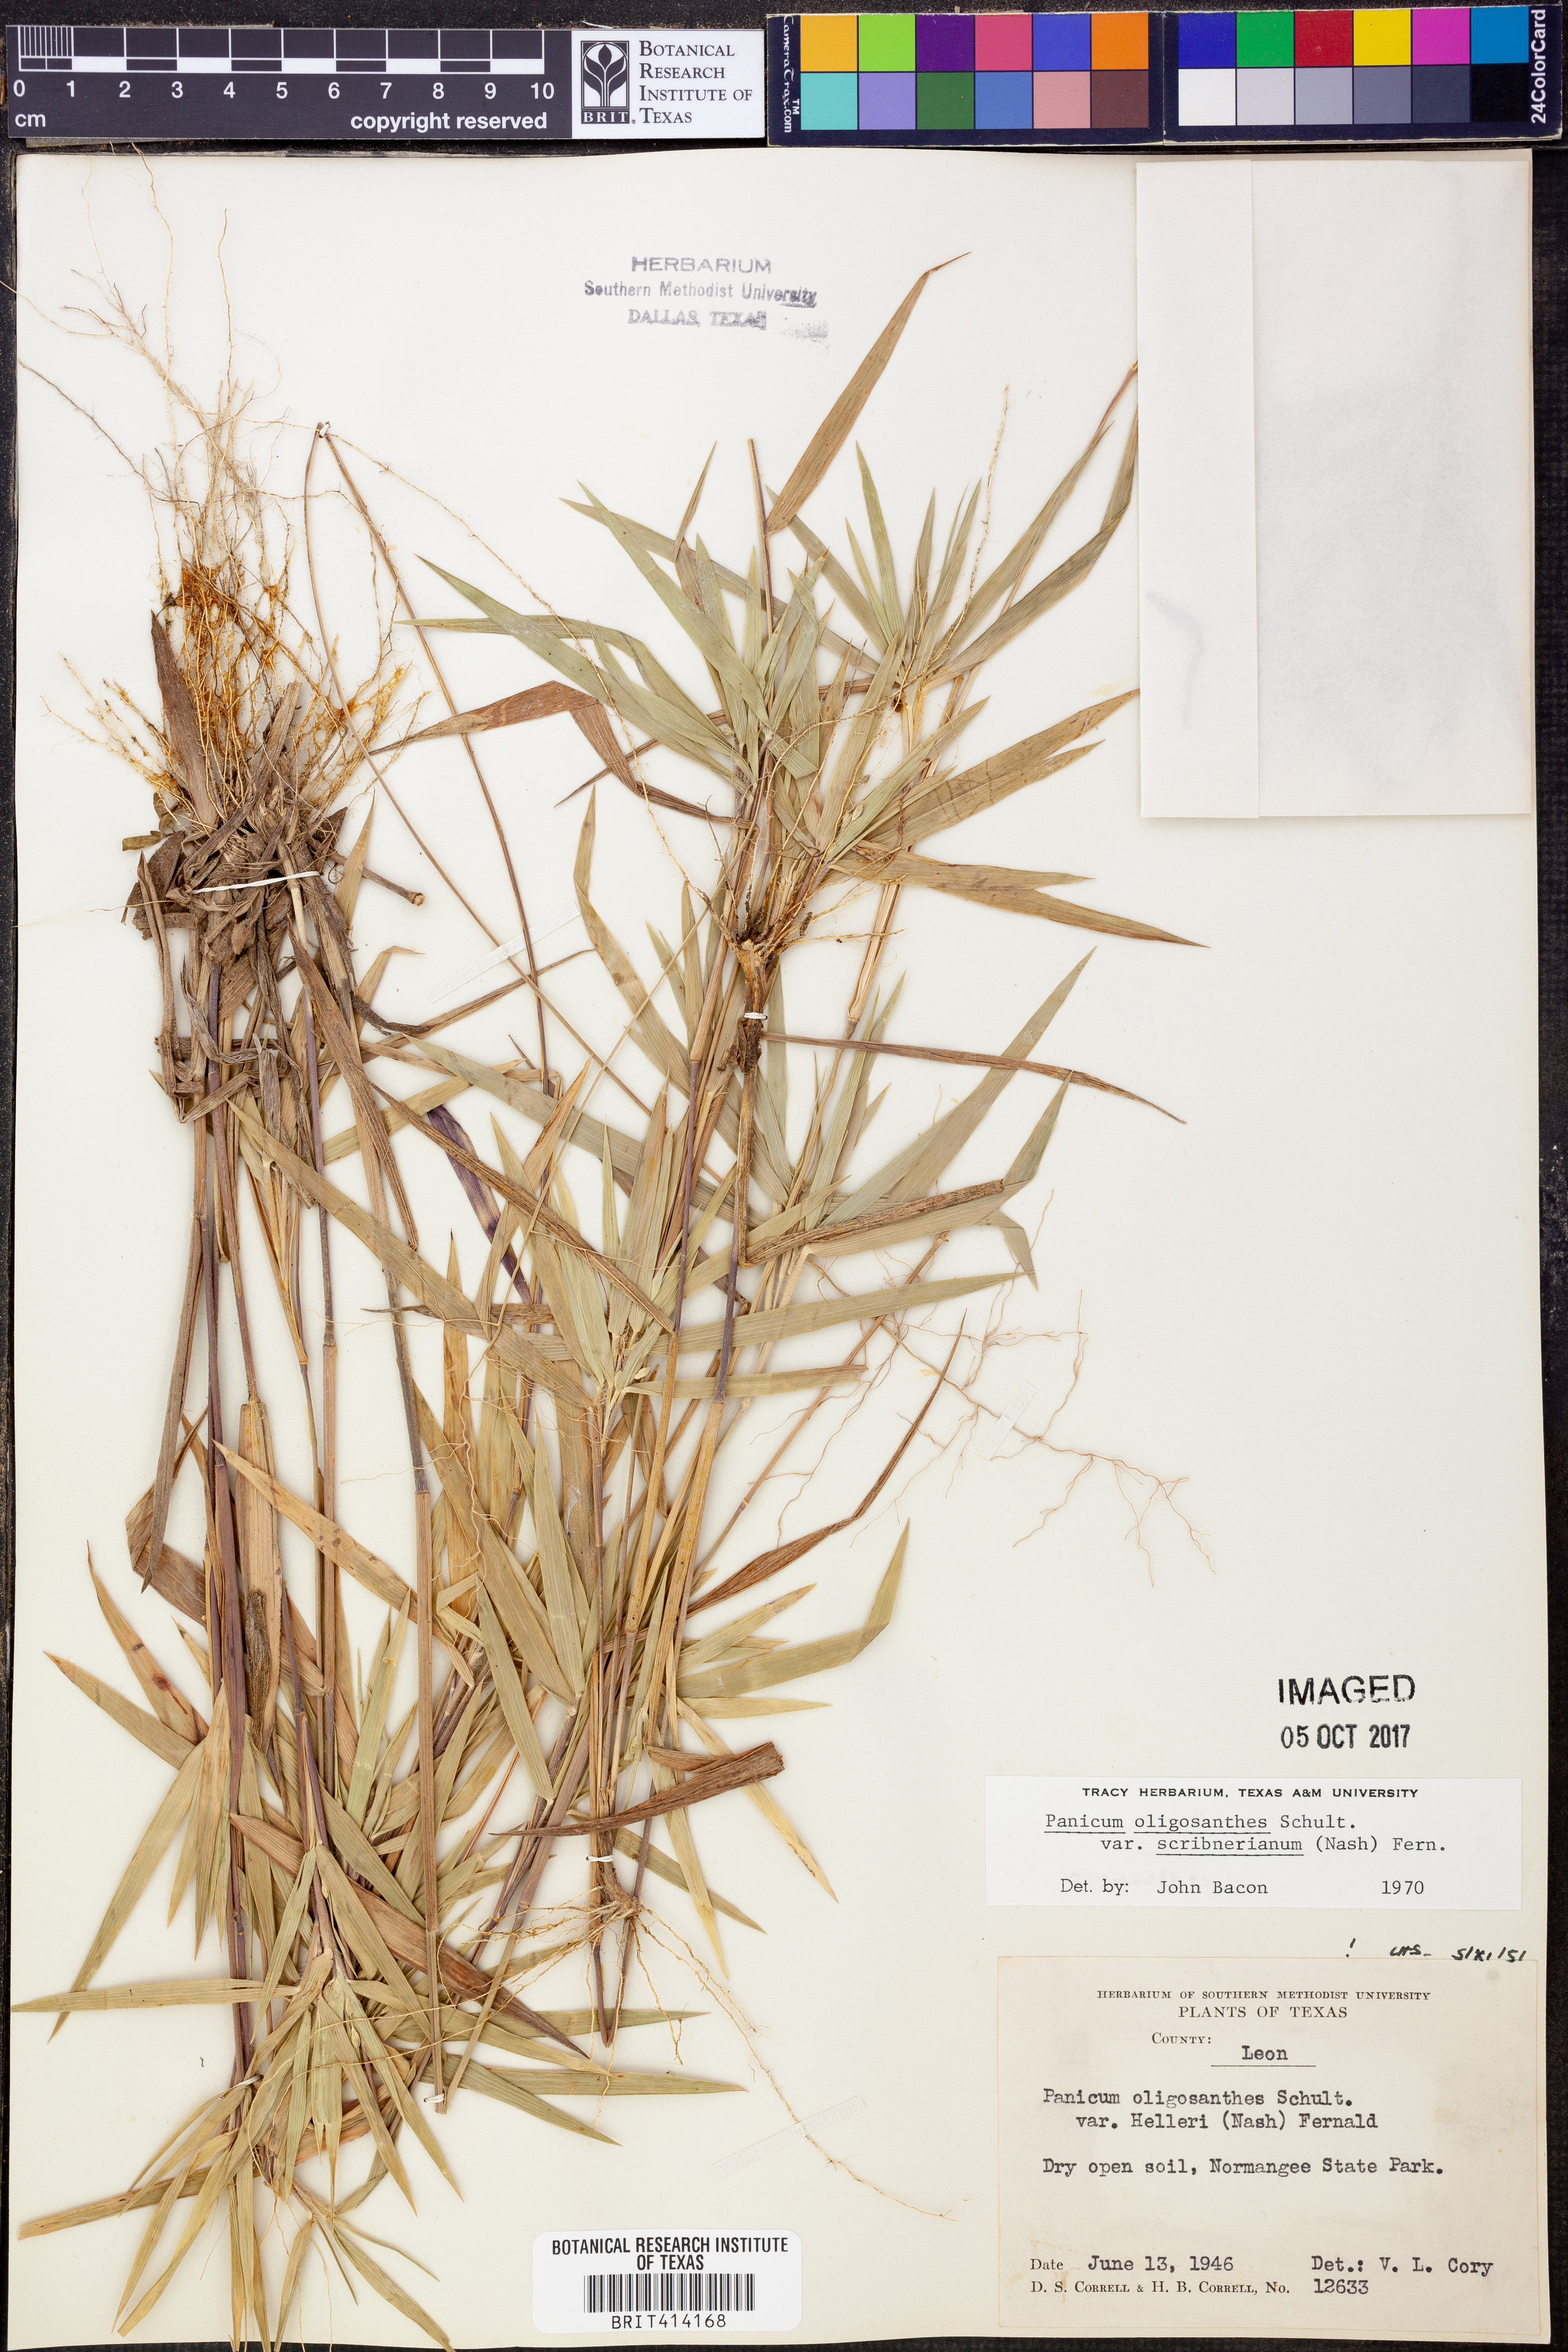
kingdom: Plantae
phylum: Tracheophyta
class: Liliopsida
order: Poales
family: Poaceae
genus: Dichanthelium
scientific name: Dichanthelium scribnerianum
